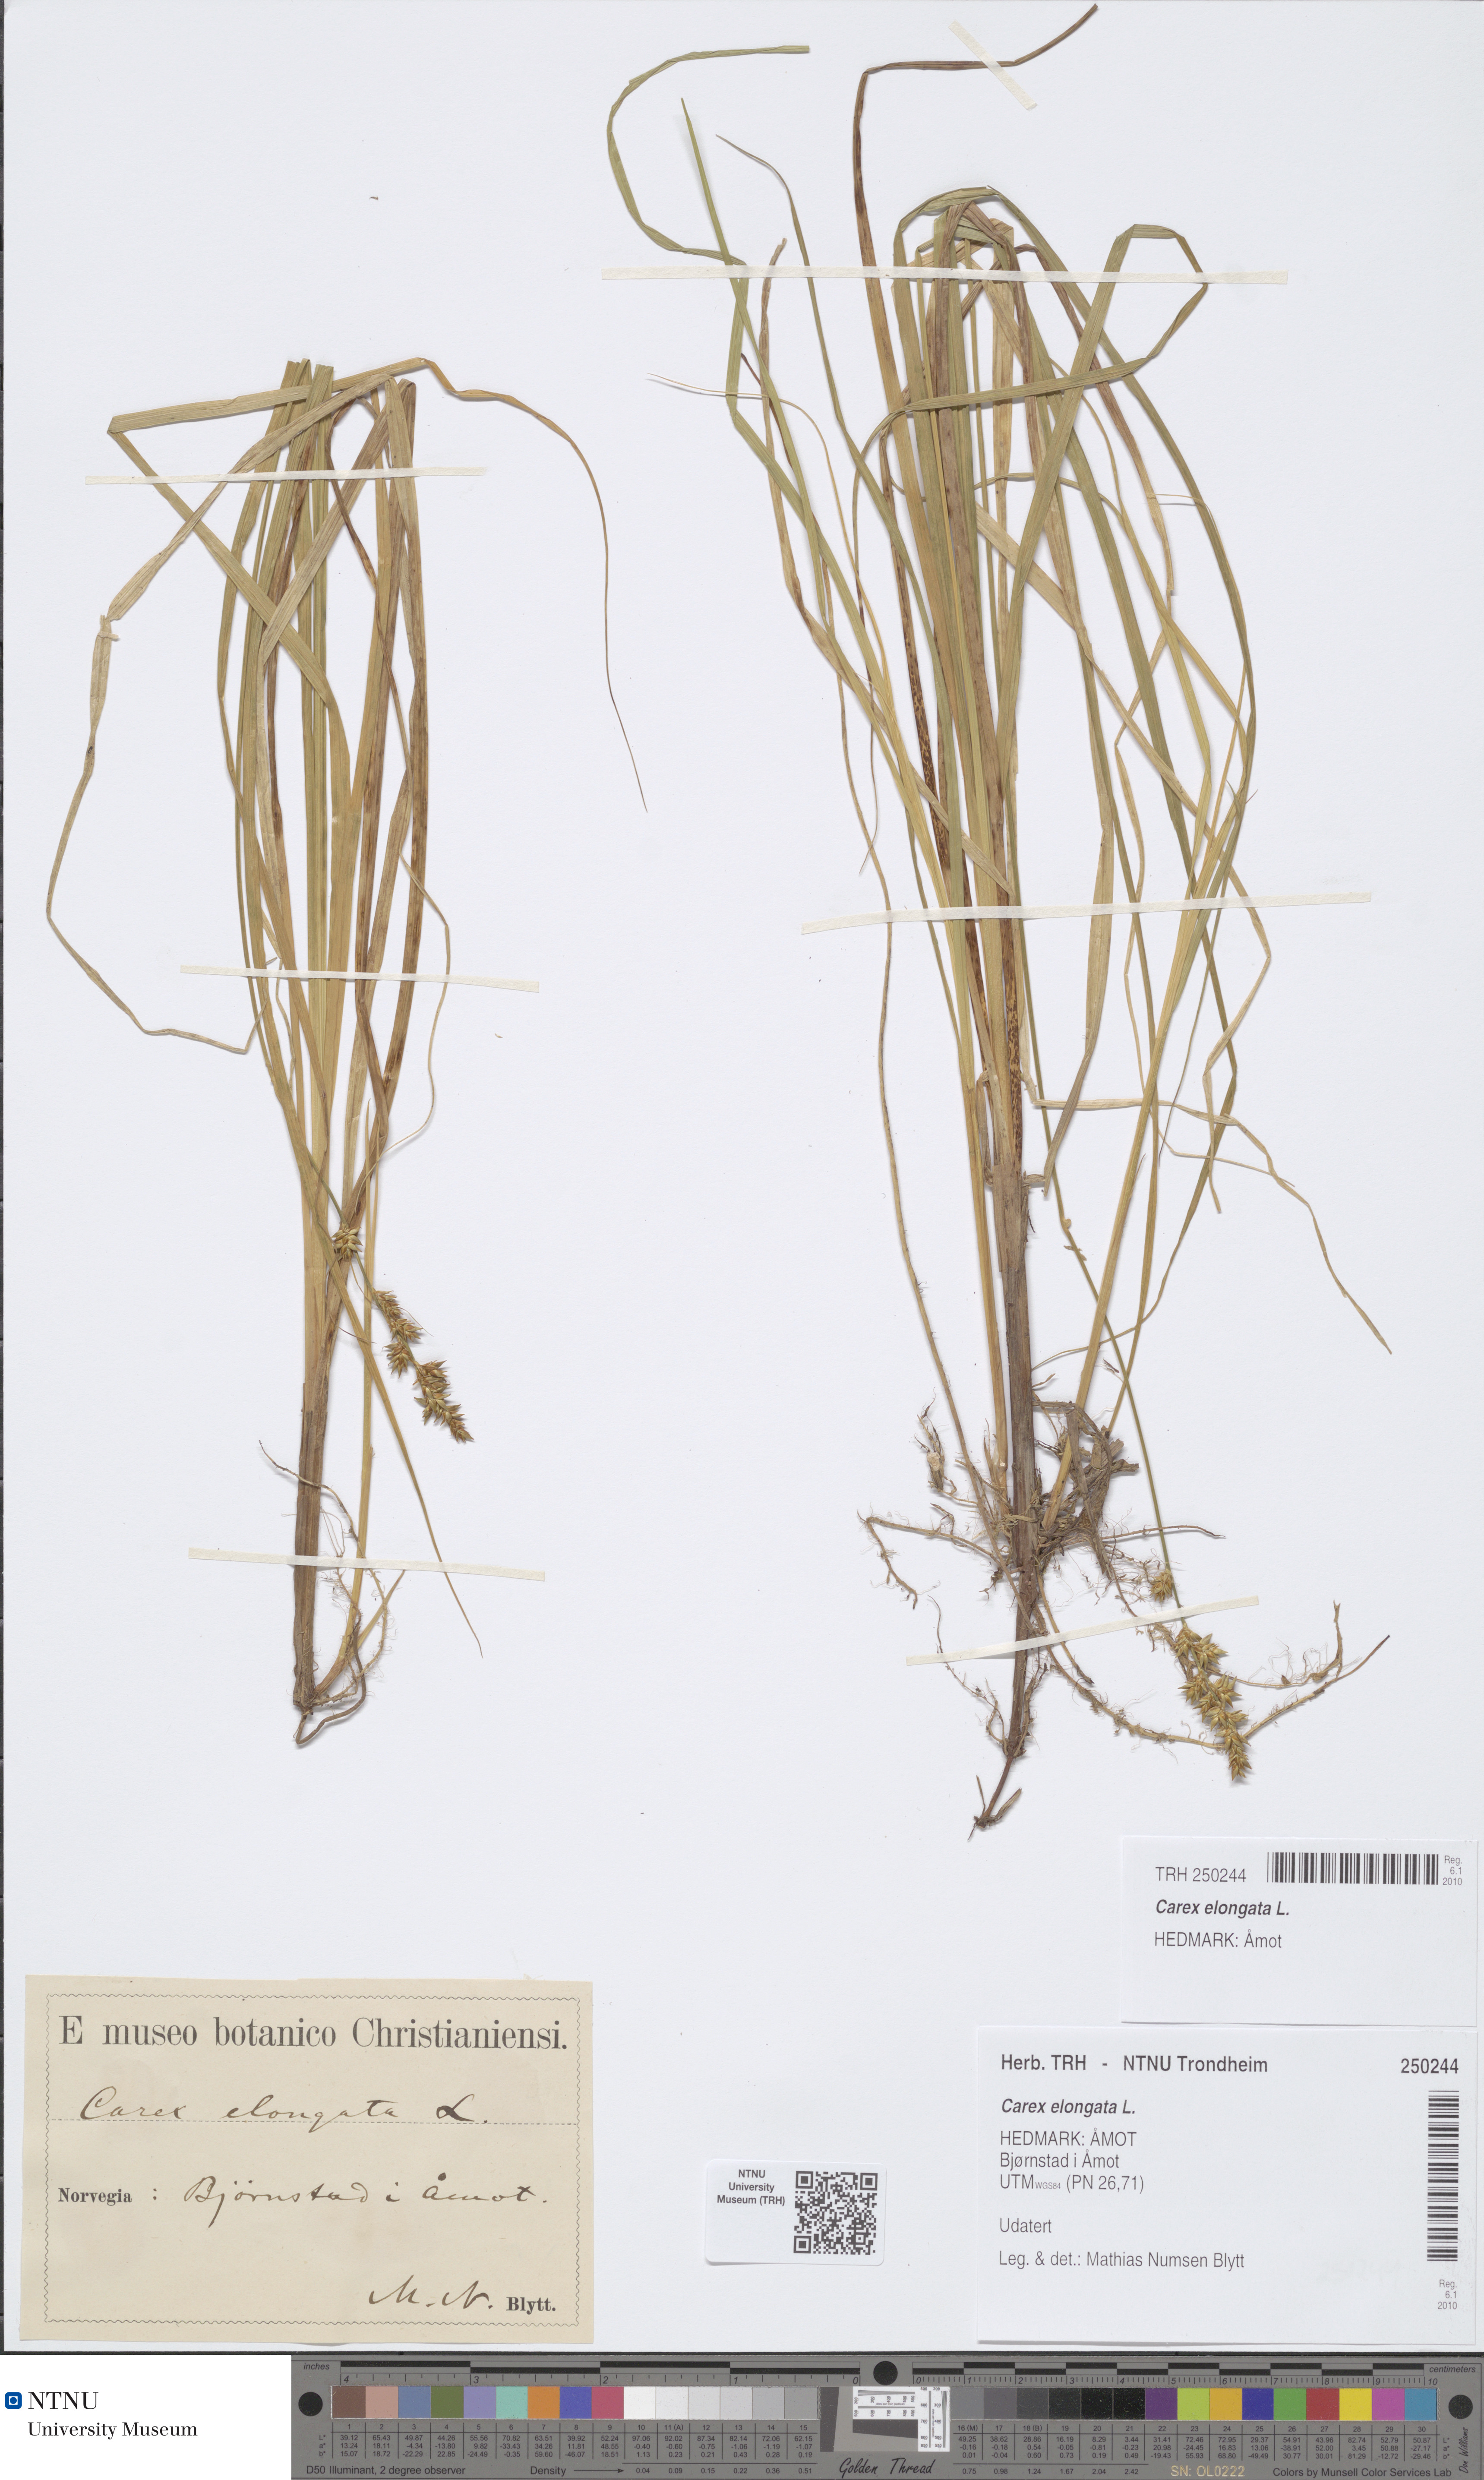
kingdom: Plantae
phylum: Tracheophyta
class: Liliopsida
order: Poales
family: Cyperaceae
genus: Carex
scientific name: Carex elongata
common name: Elongated sedge
